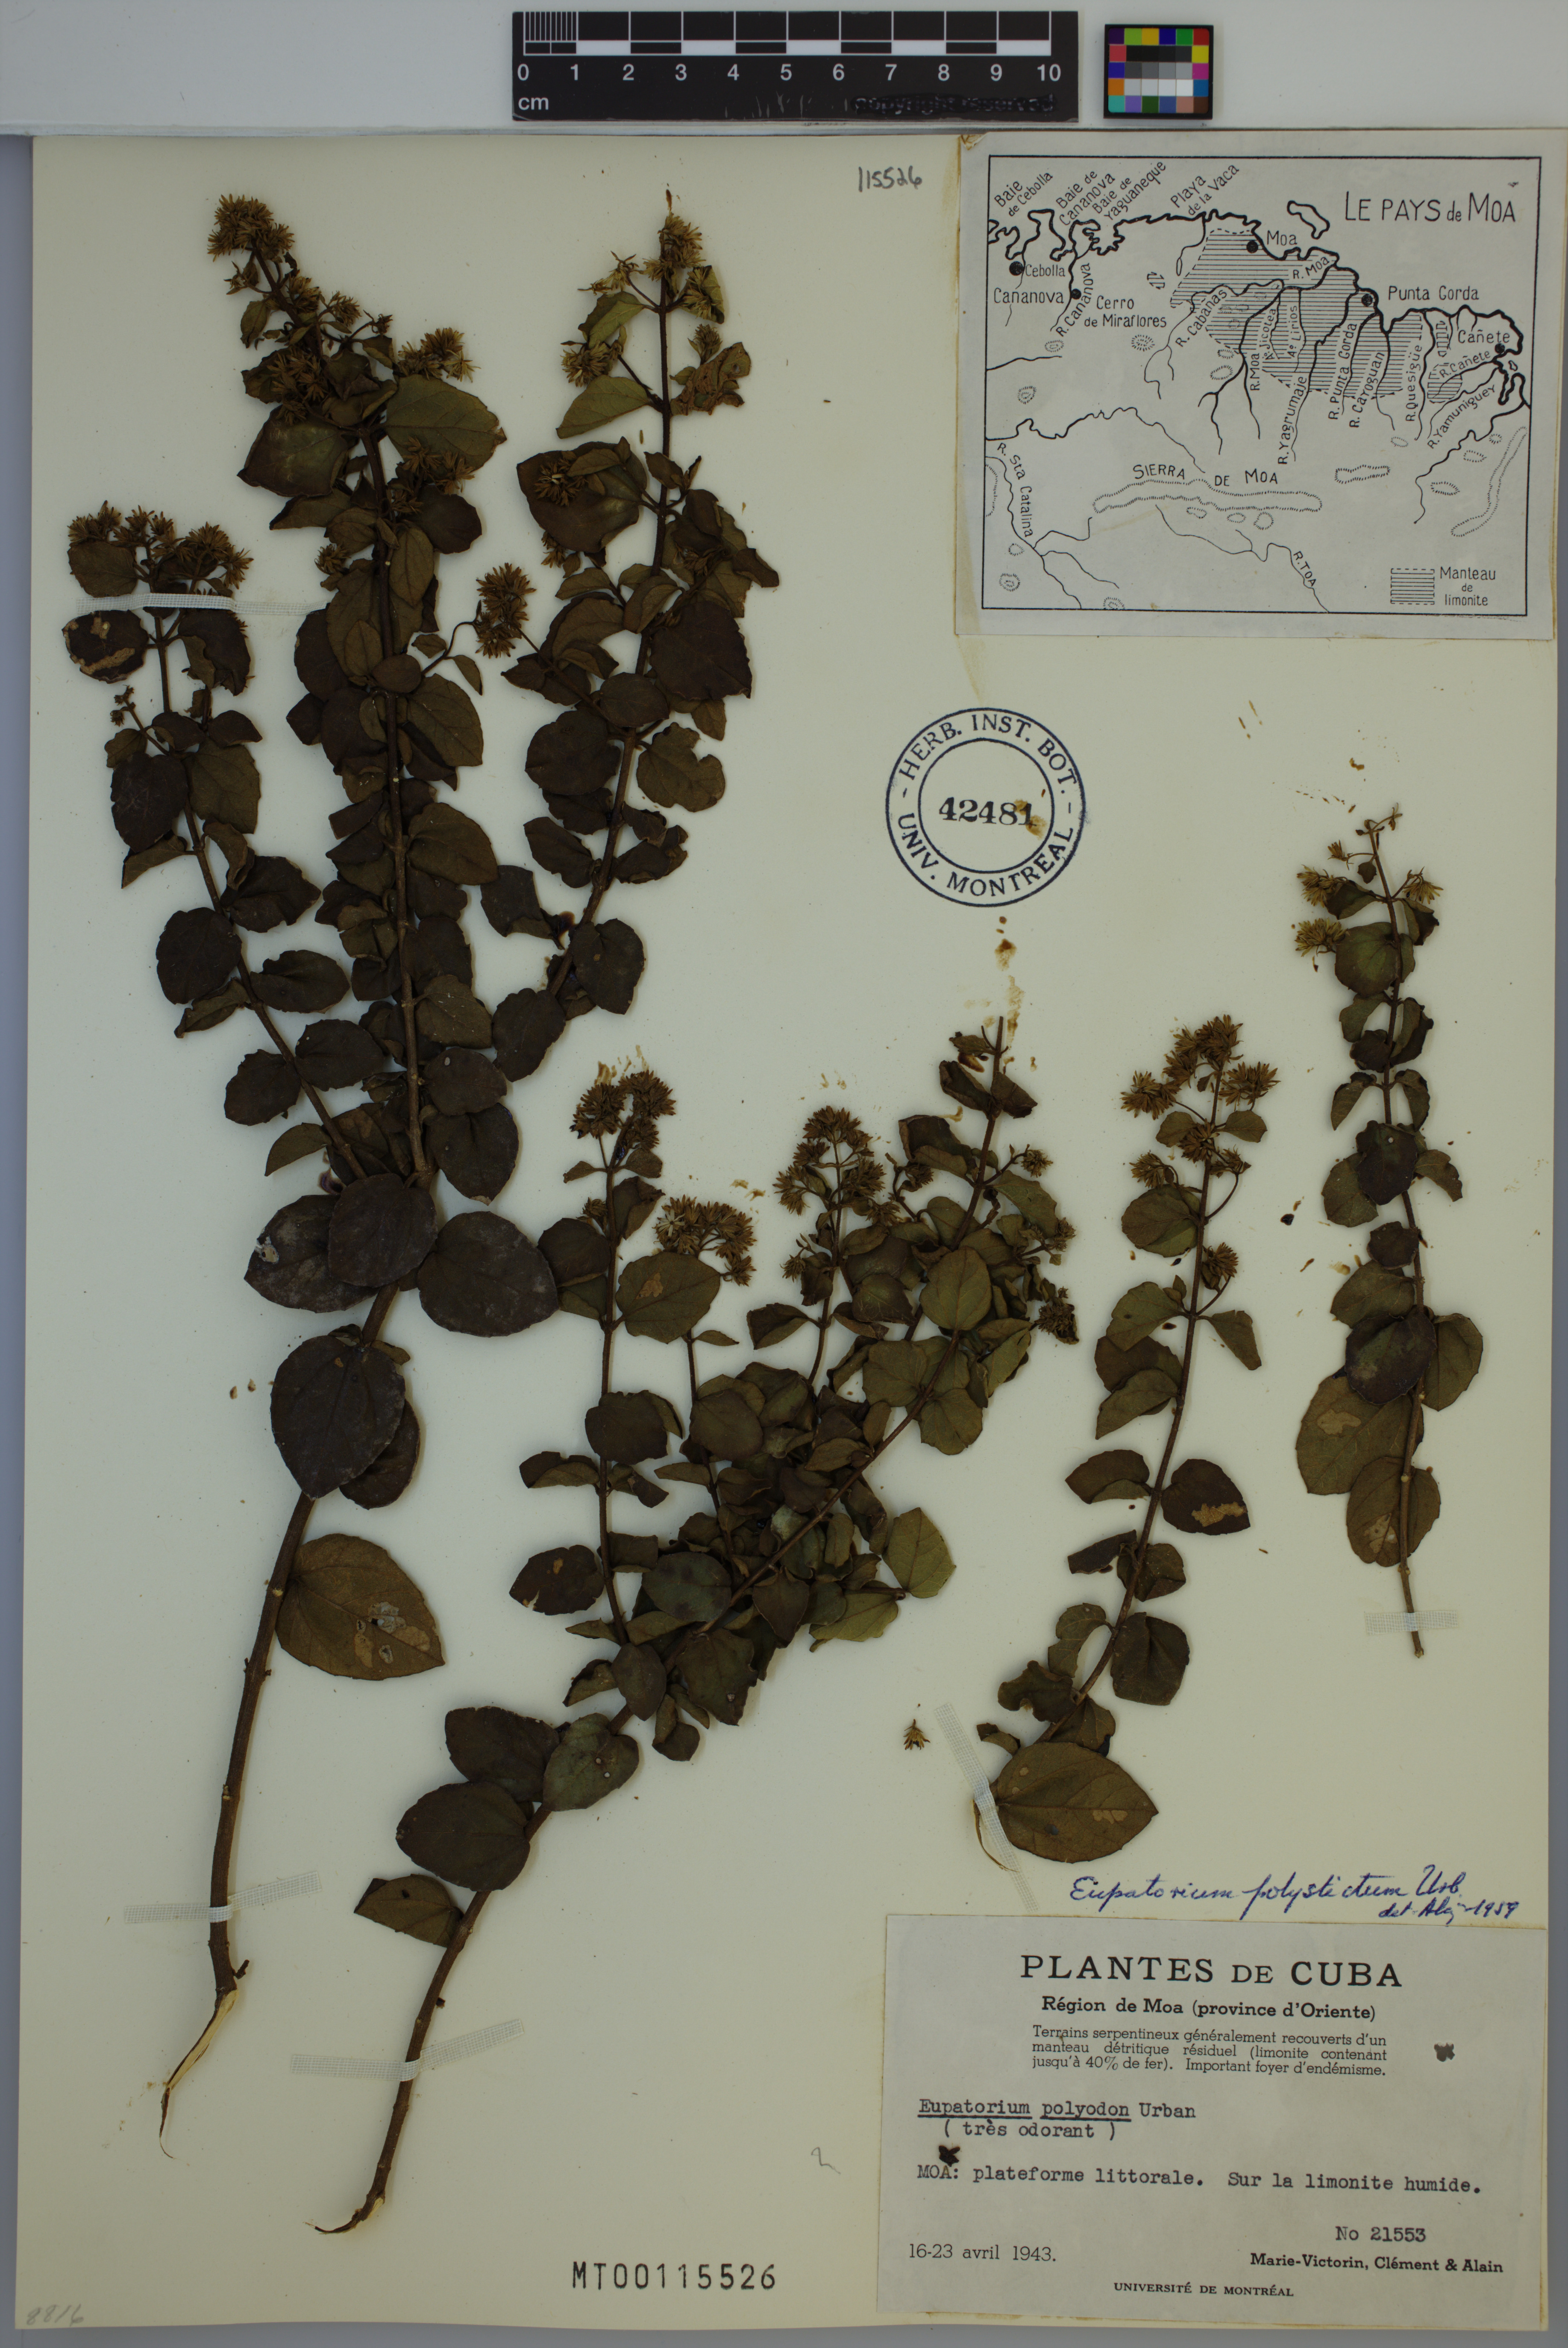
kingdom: Plantae
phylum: Tracheophyta
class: Magnoliopsida
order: Asterales
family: Asteraceae
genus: Koanophyllon
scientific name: Koanophyllon polystictum
